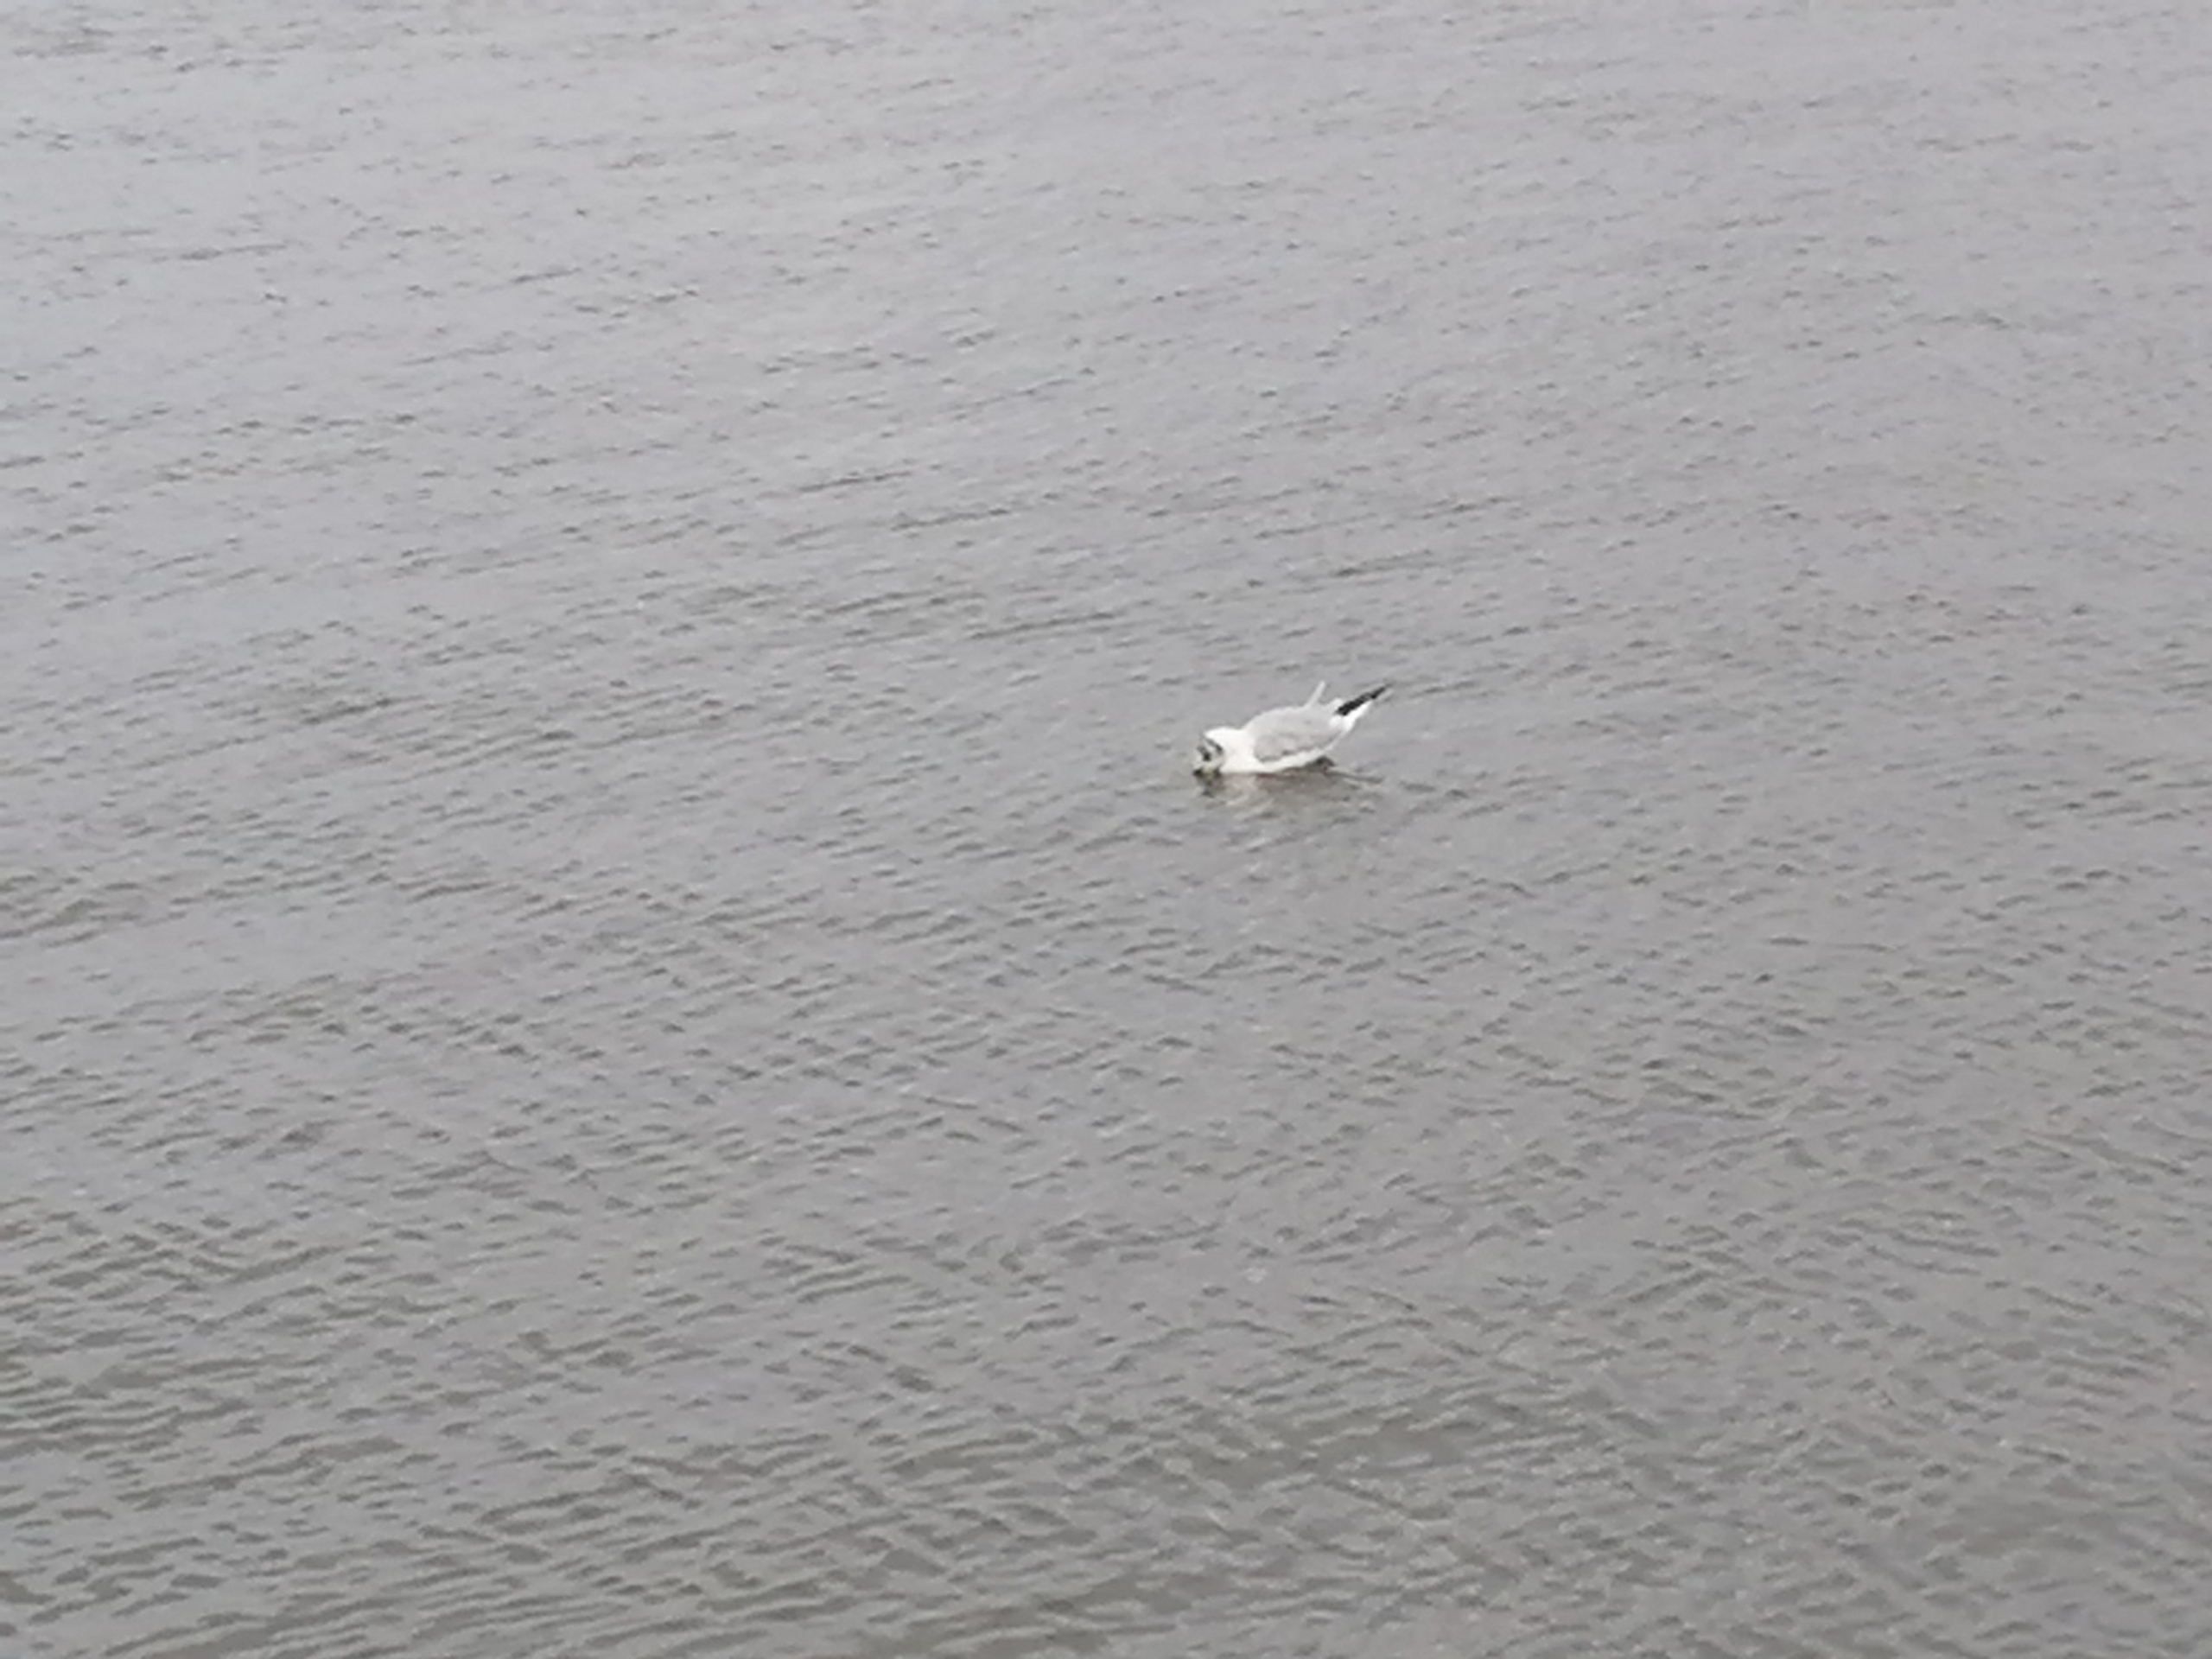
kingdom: Animalia
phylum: Chordata
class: Aves
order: Charadriiformes
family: Laridae
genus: Chroicocephalus
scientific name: Chroicocephalus ridibundus
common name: Hættemåge
